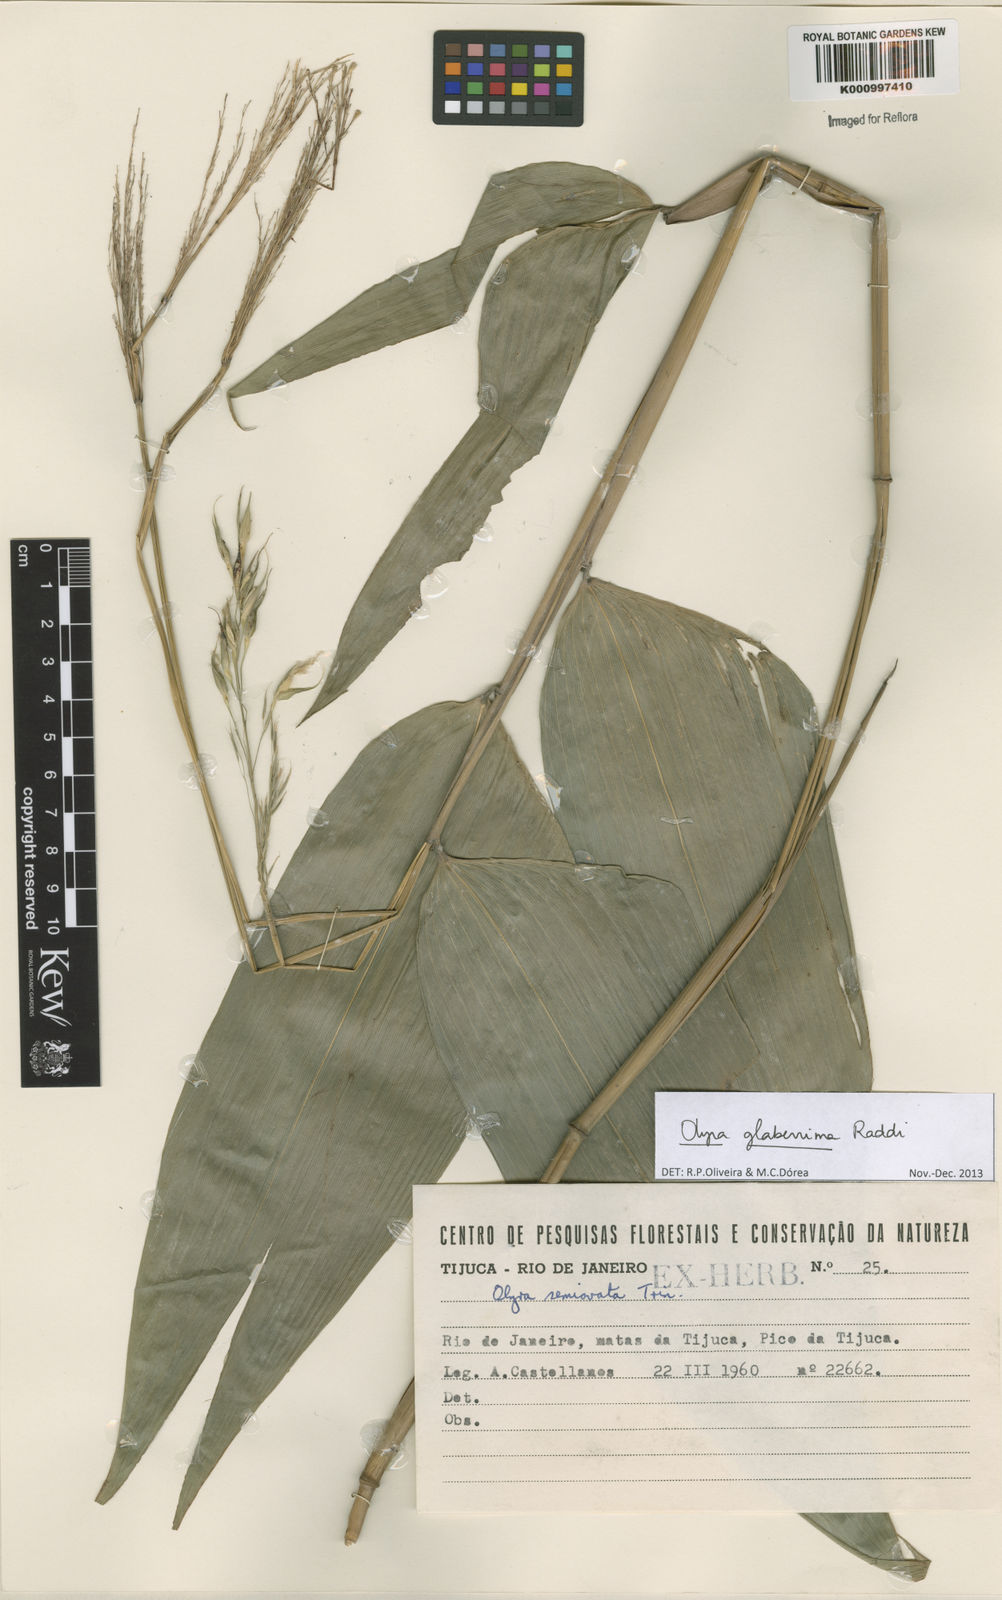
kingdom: Plantae
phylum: Tracheophyta
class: Liliopsida
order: Poales
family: Poaceae
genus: Olyra
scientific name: Olyra glaberrima
